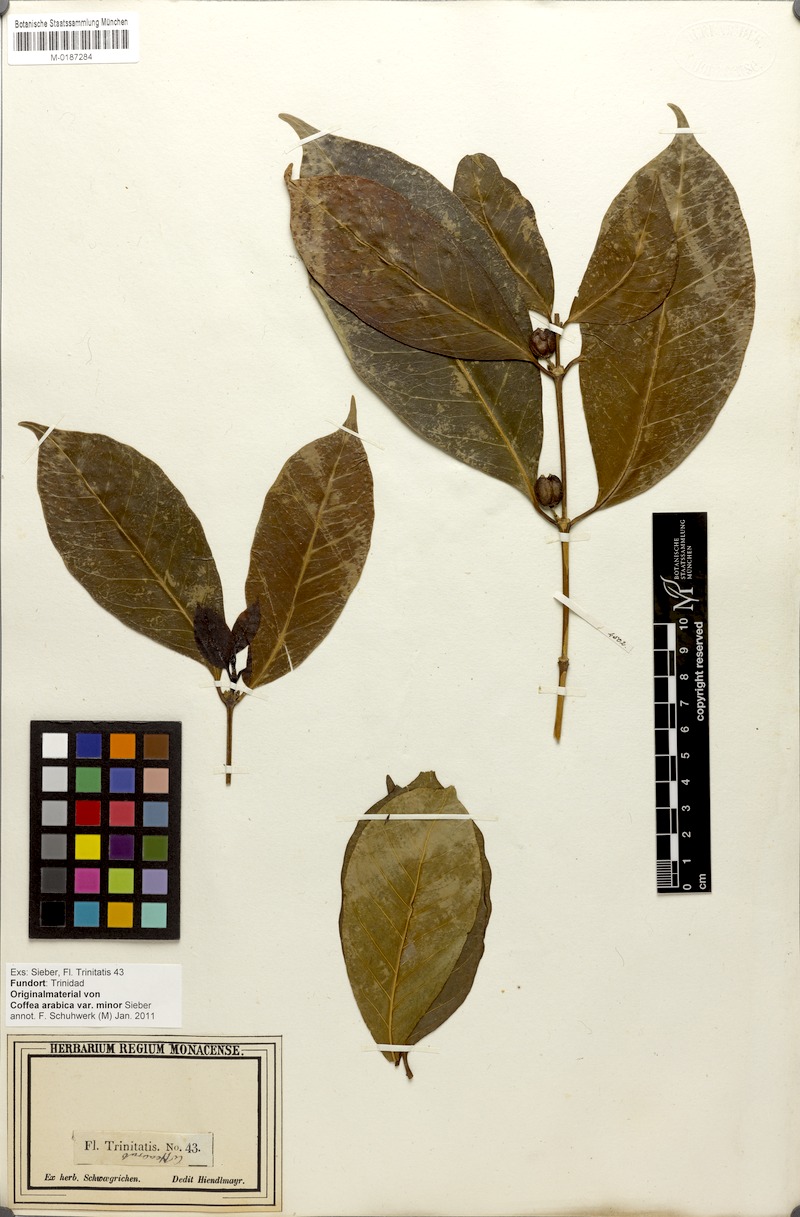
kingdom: Plantae
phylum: Tracheophyta
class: Magnoliopsida
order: Gentianales
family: Rubiaceae
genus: Coffea
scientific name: Coffea arabica
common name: Coffee
